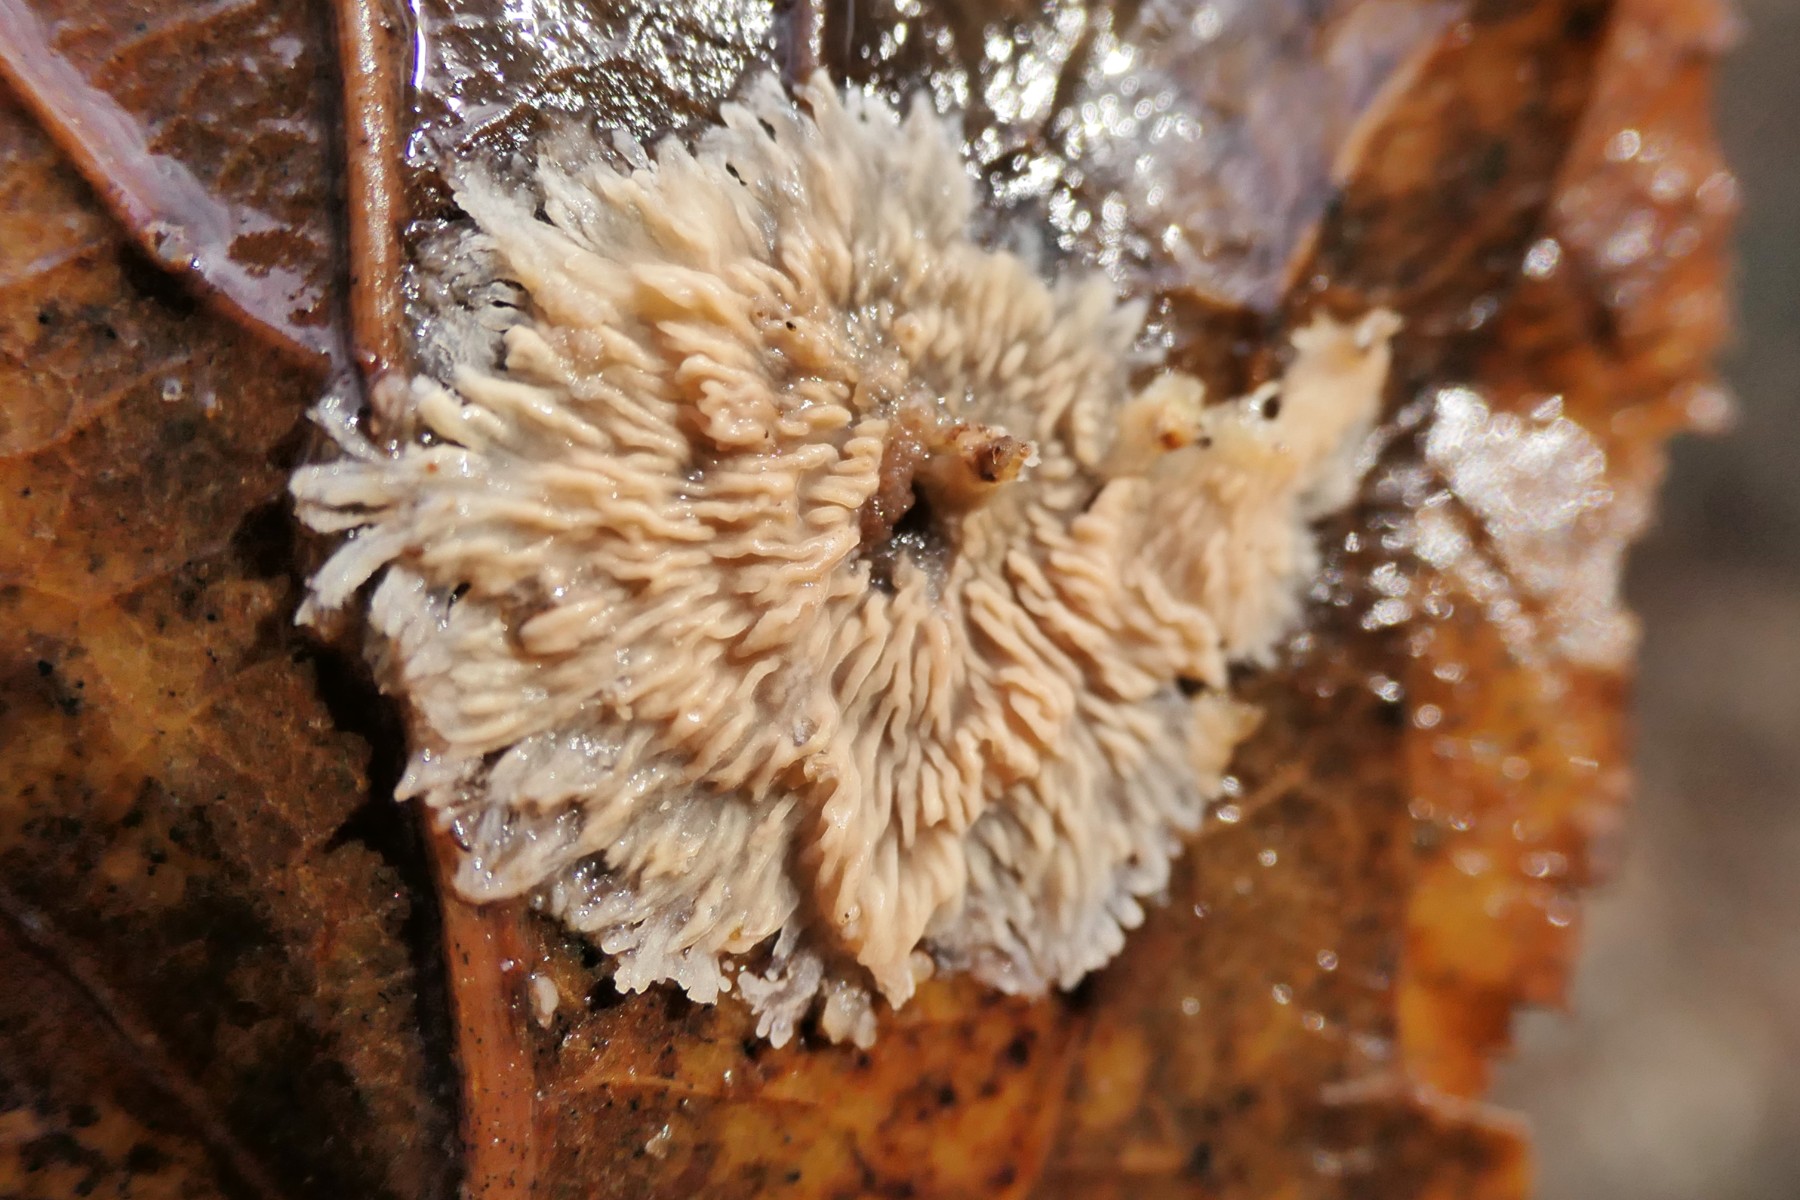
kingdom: Fungi
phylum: Basidiomycota
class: Agaricomycetes
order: Polyporales
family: Meruliaceae
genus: Phlebia
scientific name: Phlebia radiata
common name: stråle-åresvamp
